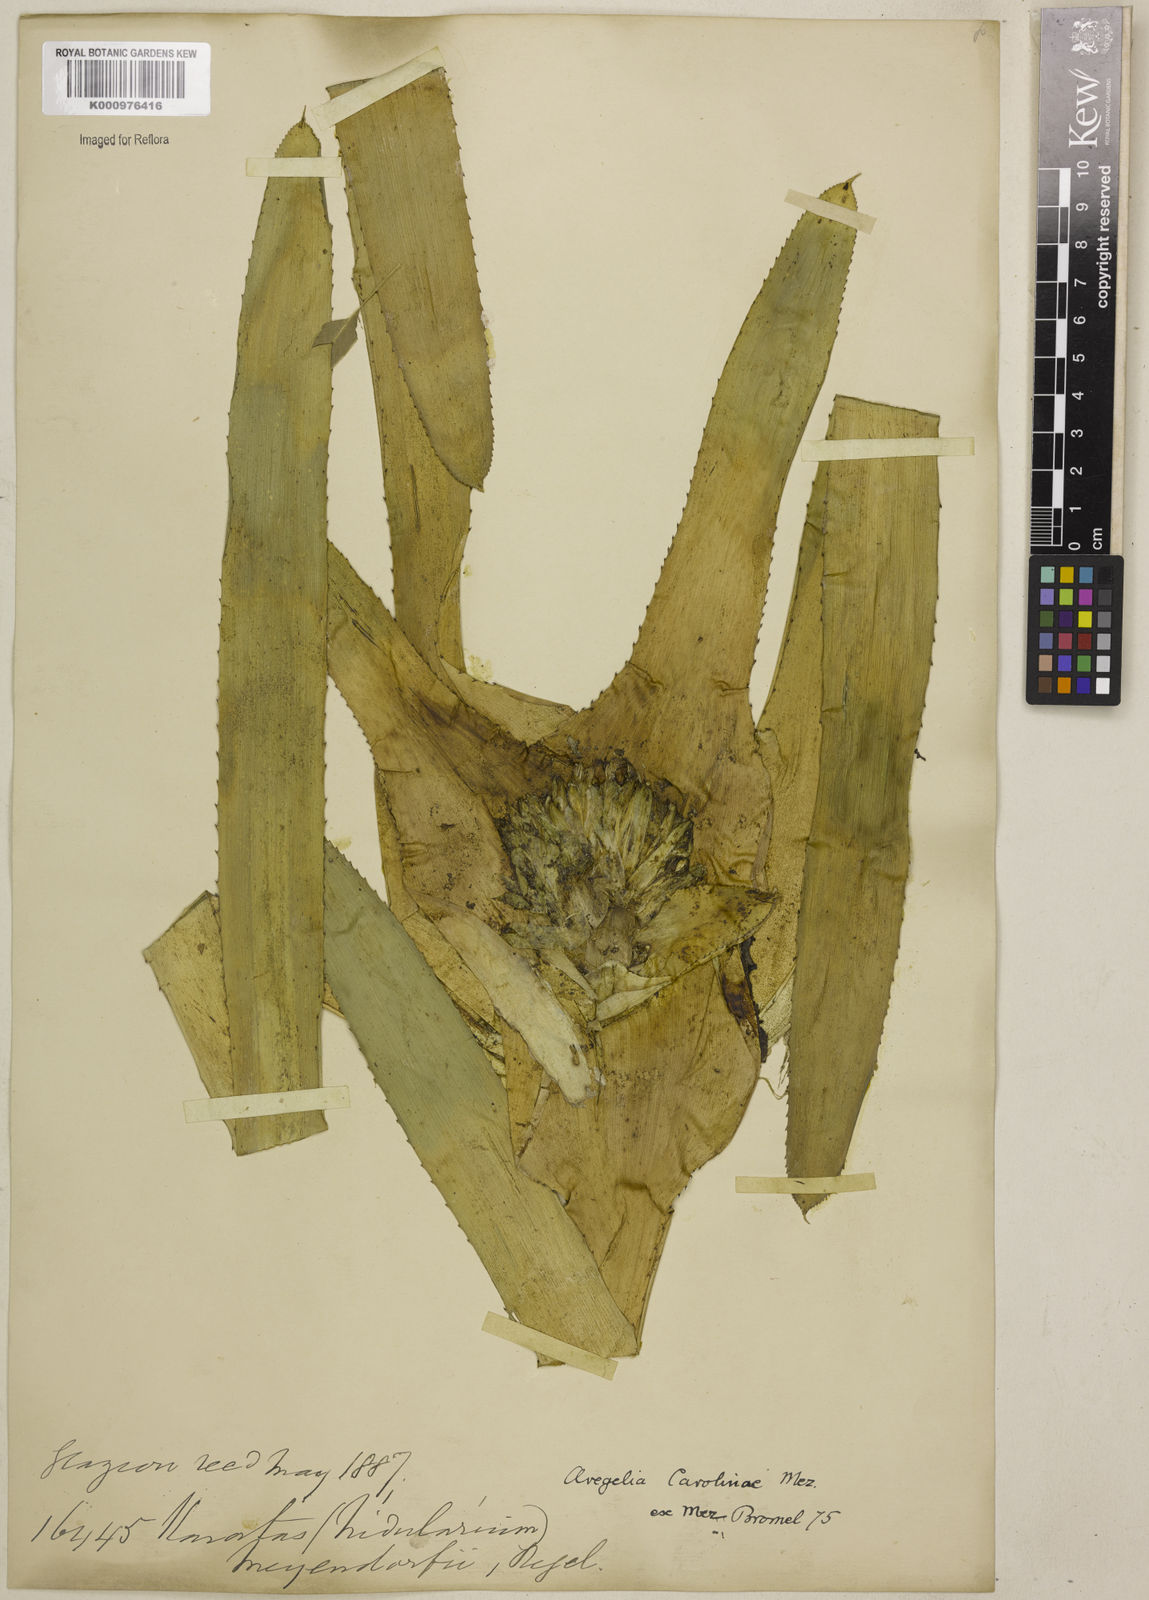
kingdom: Plantae
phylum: Tracheophyta
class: Liliopsida
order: Poales
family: Bromeliaceae
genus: Neoregelia
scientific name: Neoregelia carolinae
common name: Blushing bromeliad
